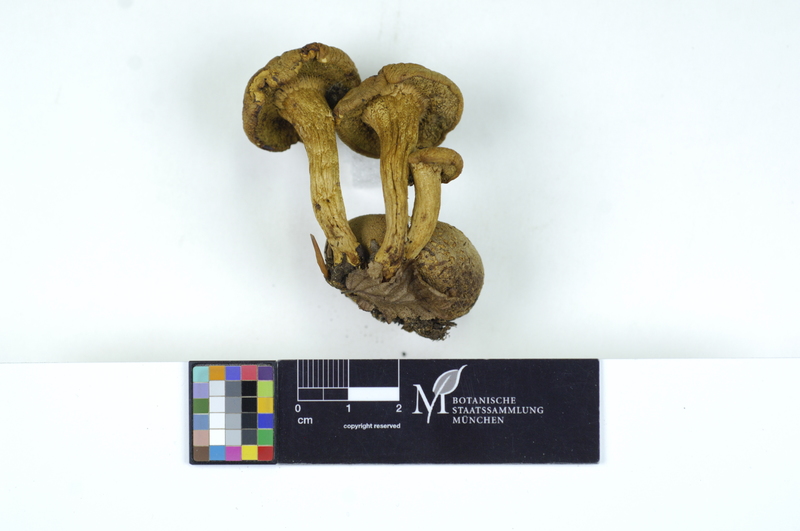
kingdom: Fungi
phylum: Basidiomycota
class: Agaricomycetes
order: Boletales
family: Boletaceae
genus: Pseudoboletus
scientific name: Pseudoboletus parasiticus
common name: Parasitic bolete
